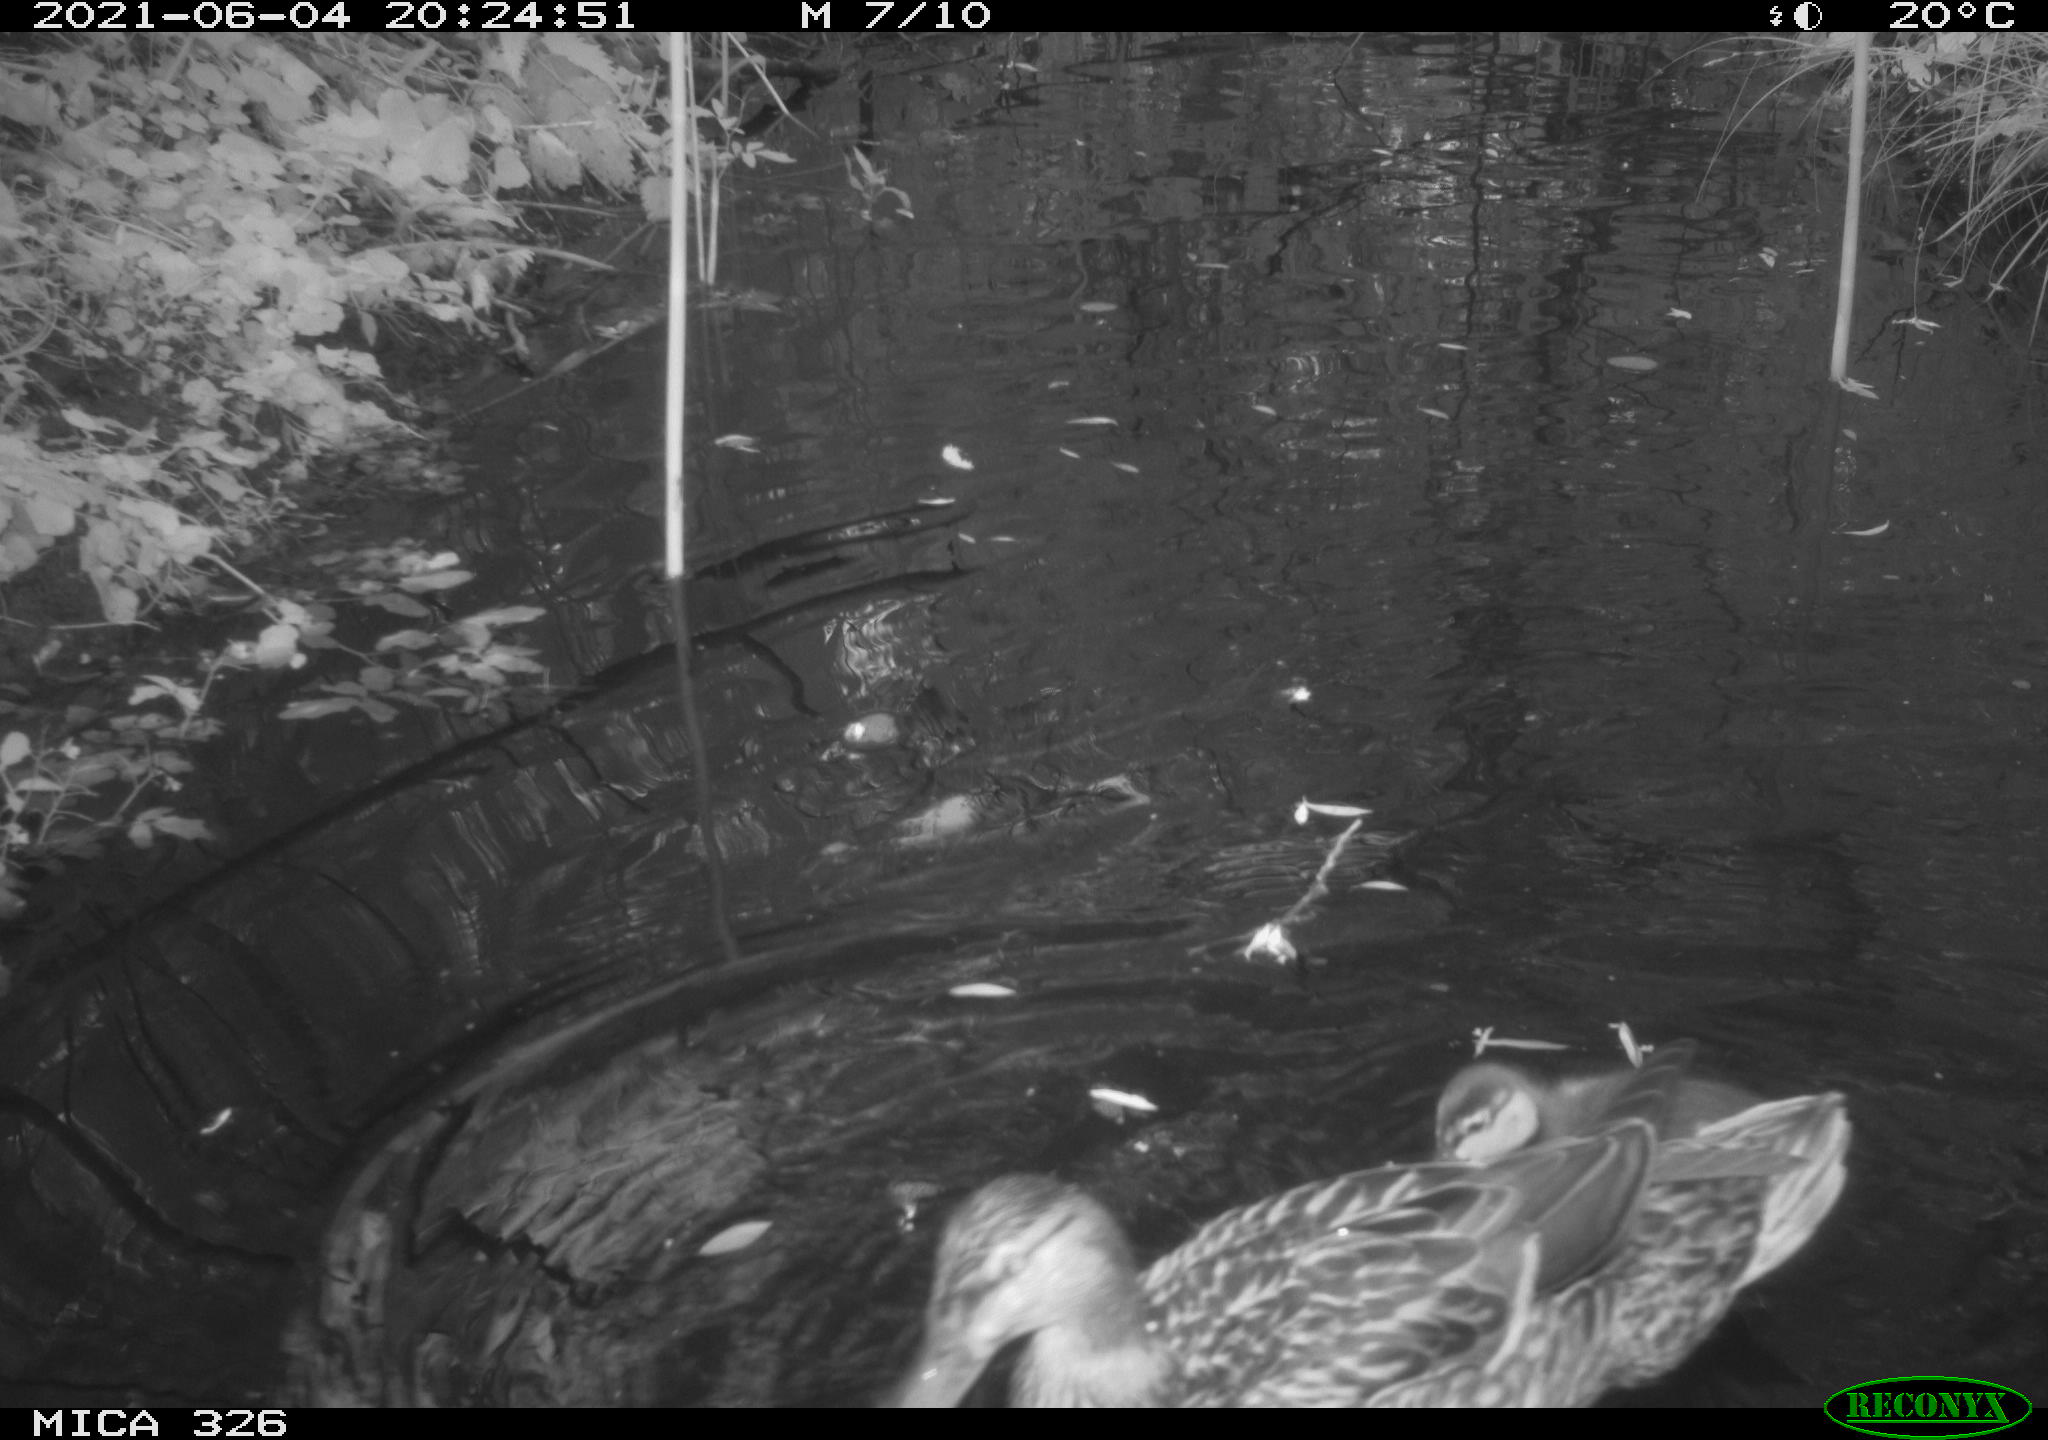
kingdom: Animalia
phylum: Chordata
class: Aves
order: Anseriformes
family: Anatidae
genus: Anas
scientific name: Anas platyrhynchos
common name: Mallard
